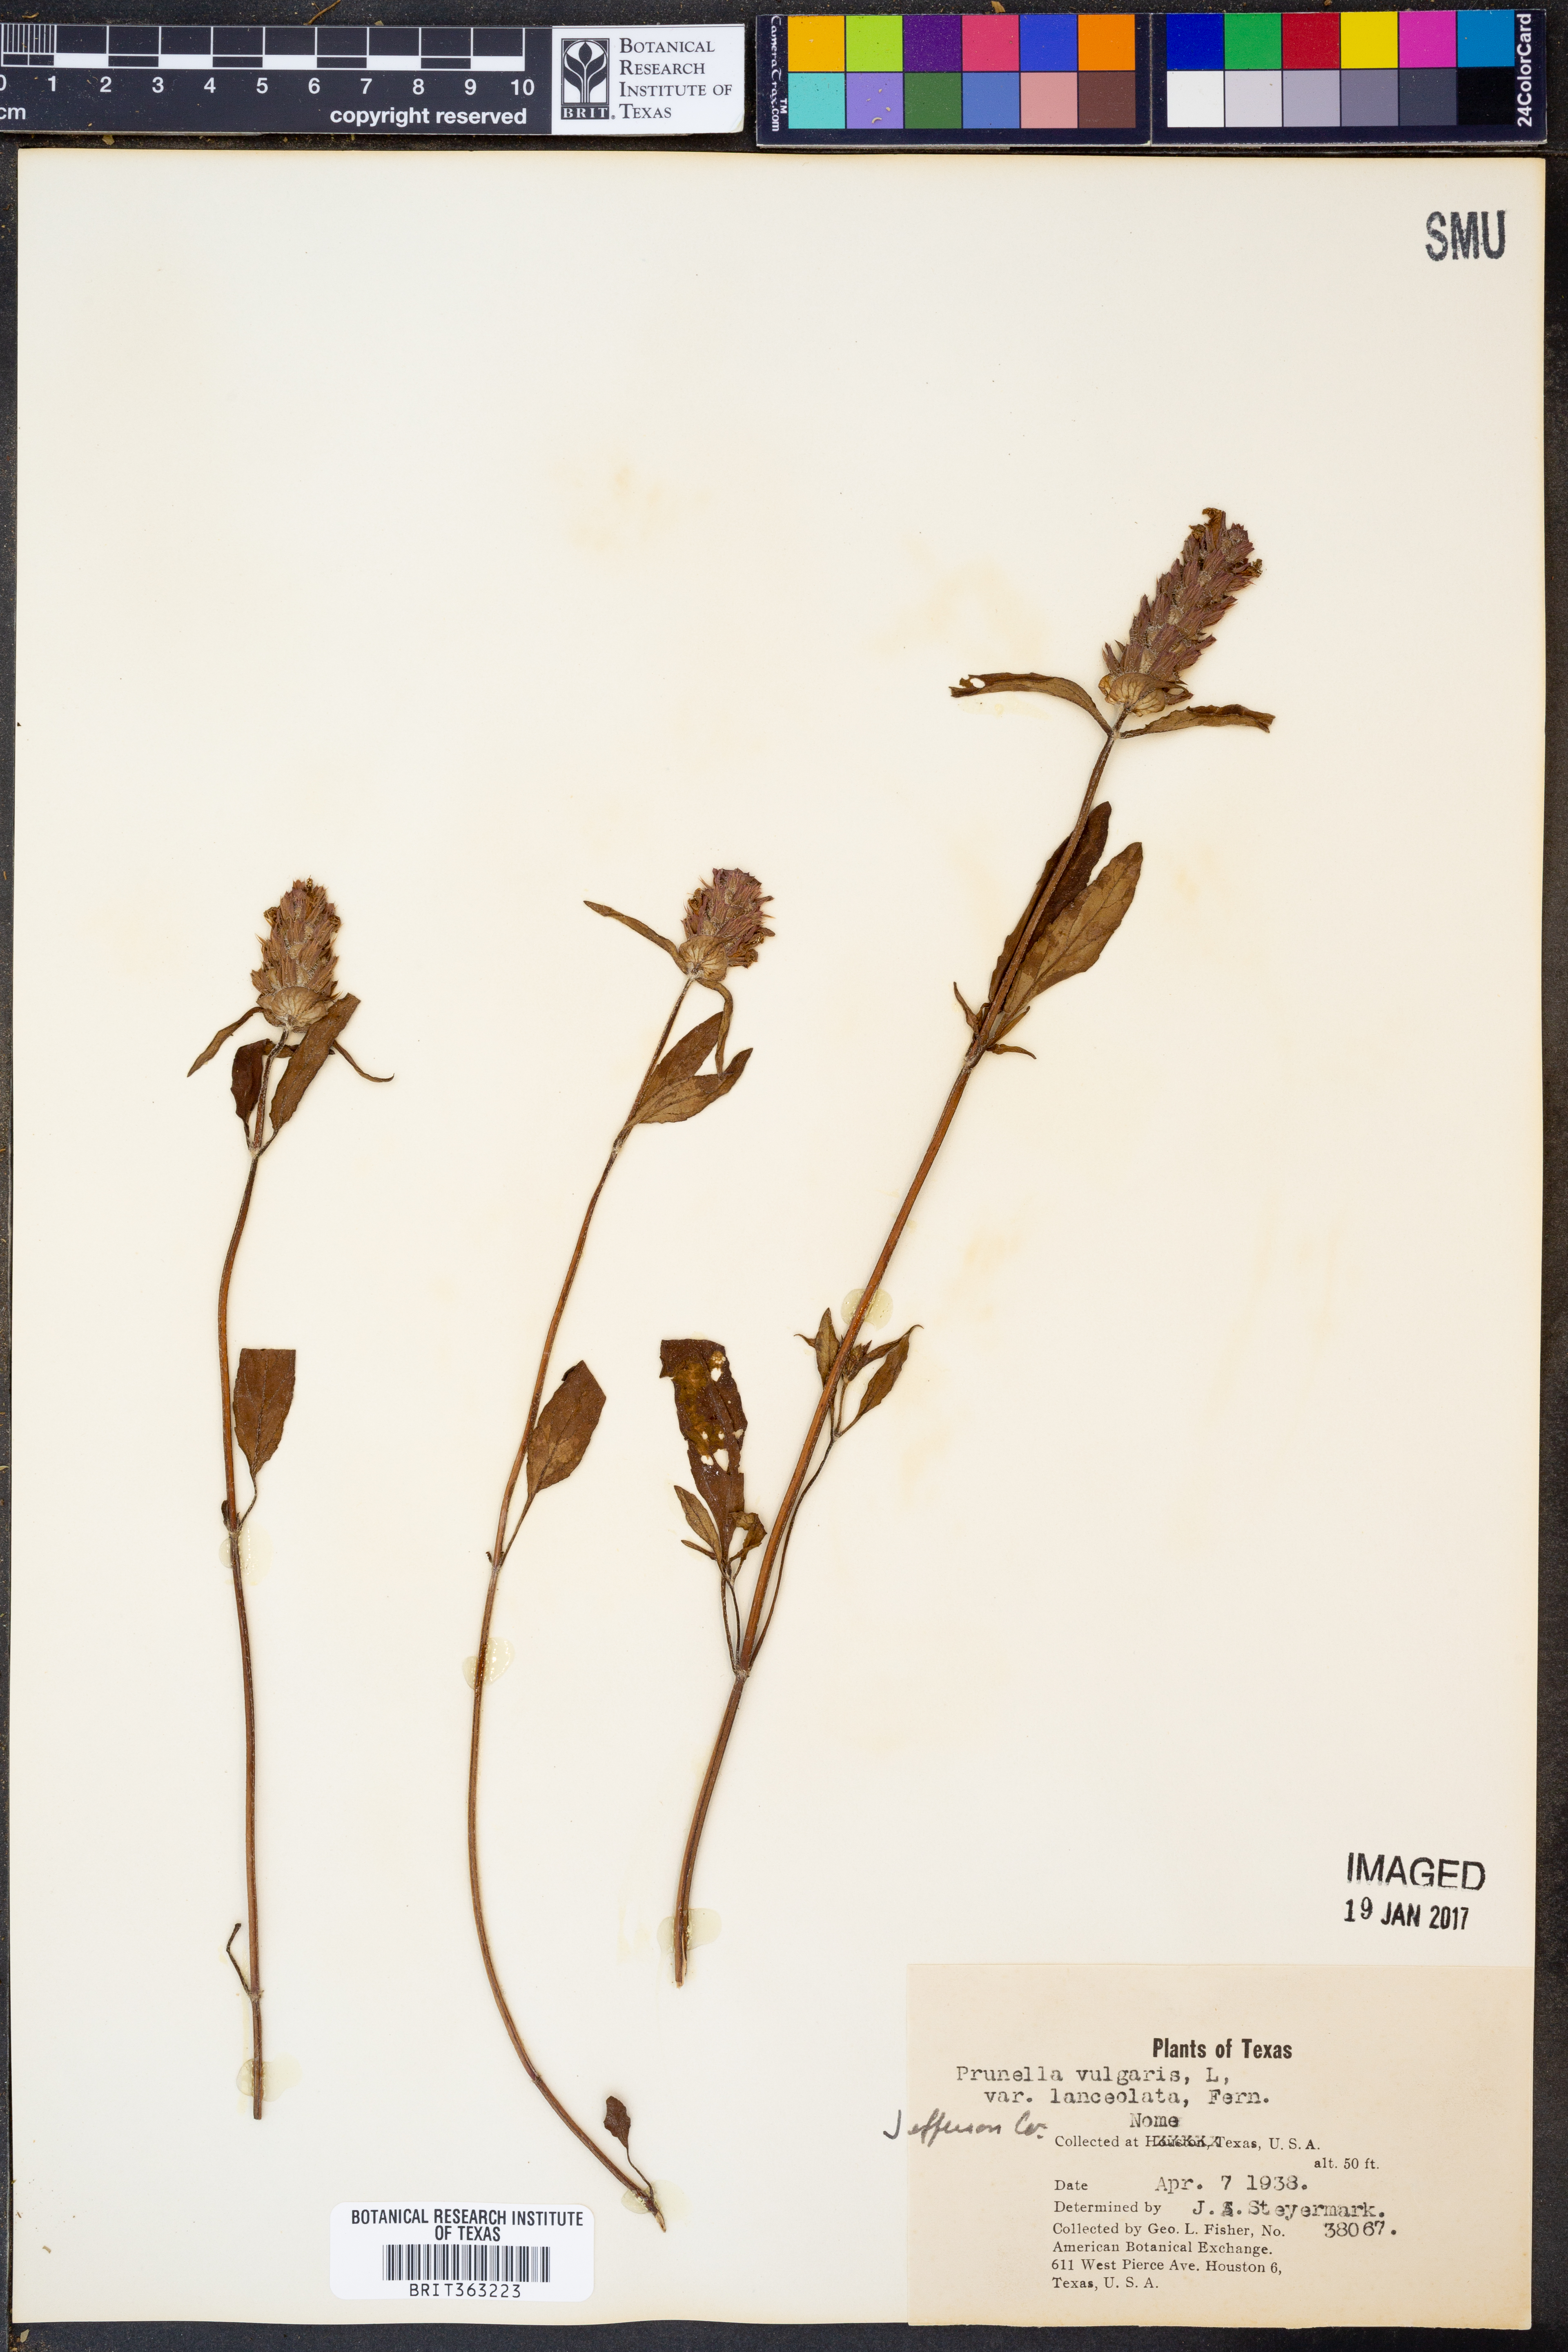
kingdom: Plantae
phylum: Tracheophyta
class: Magnoliopsida
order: Lamiales
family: Lamiaceae
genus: Prunella
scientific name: Prunella vulgaris
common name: Heal-all
